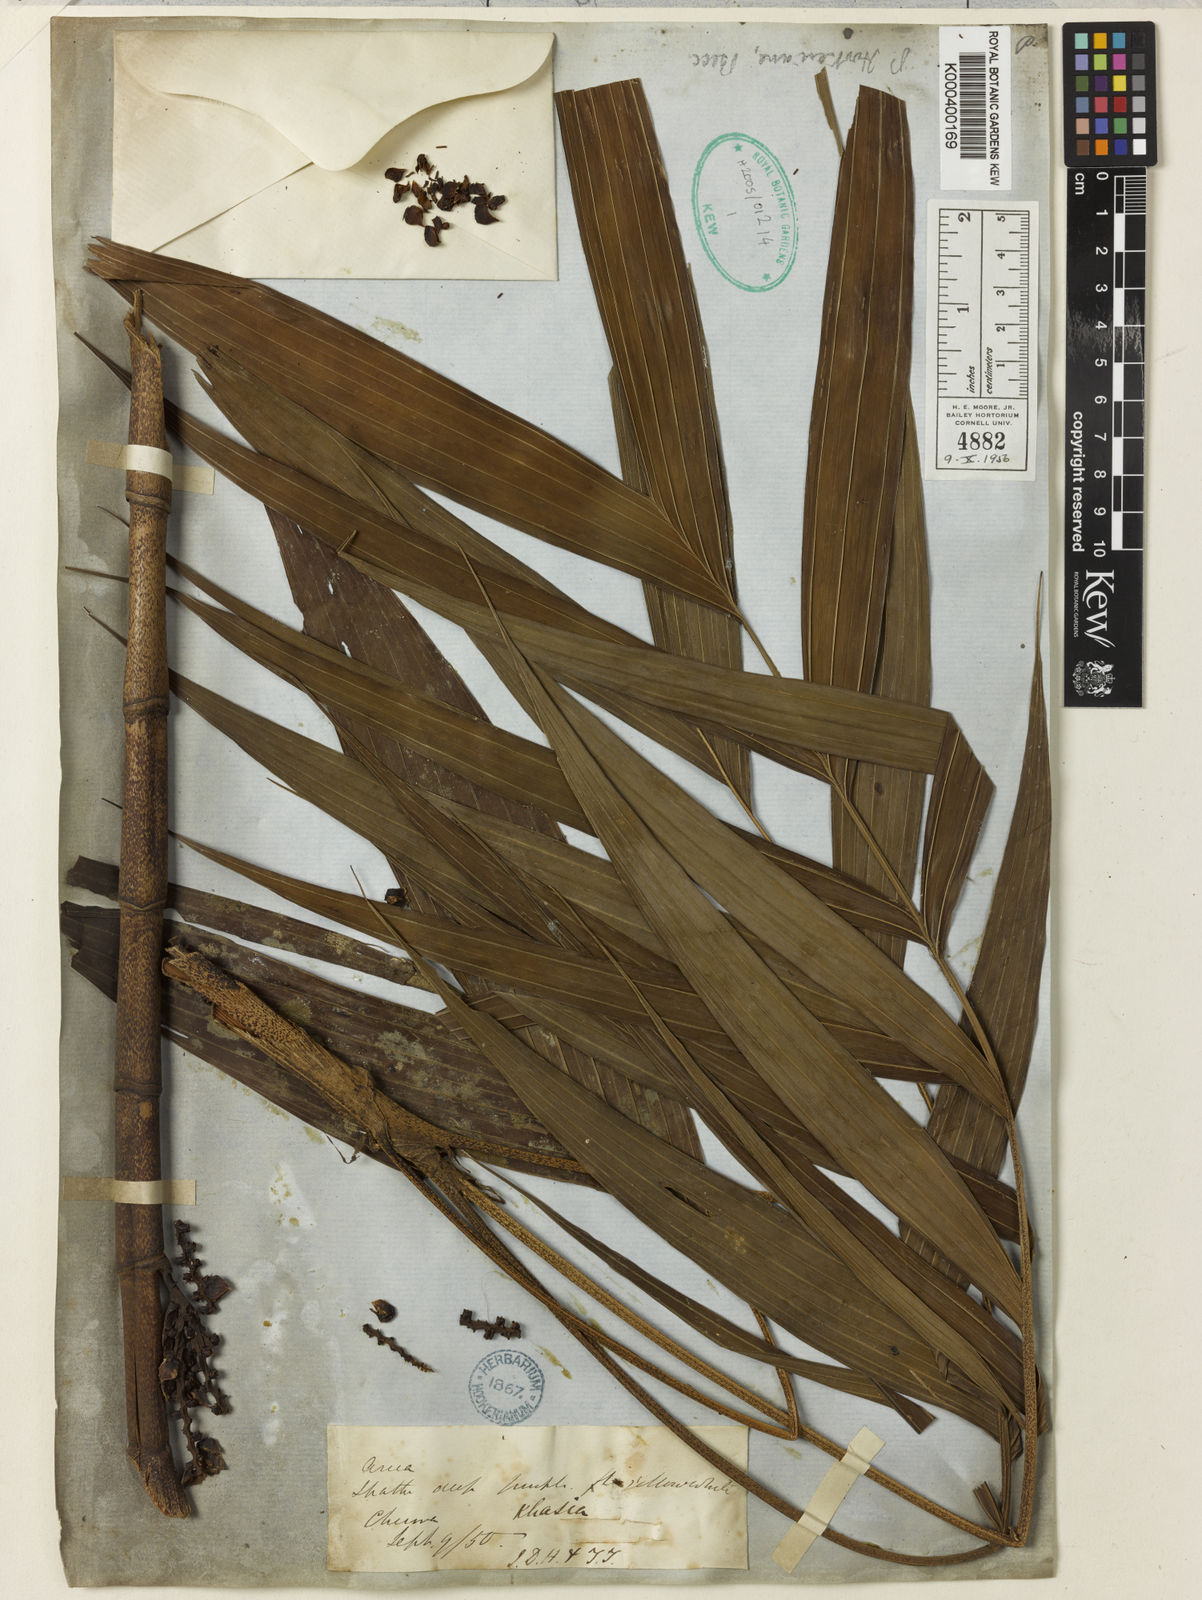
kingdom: Plantae
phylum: Tracheophyta
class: Liliopsida
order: Arecales
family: Arecaceae
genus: Pinanga
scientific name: Pinanga sylvestris
